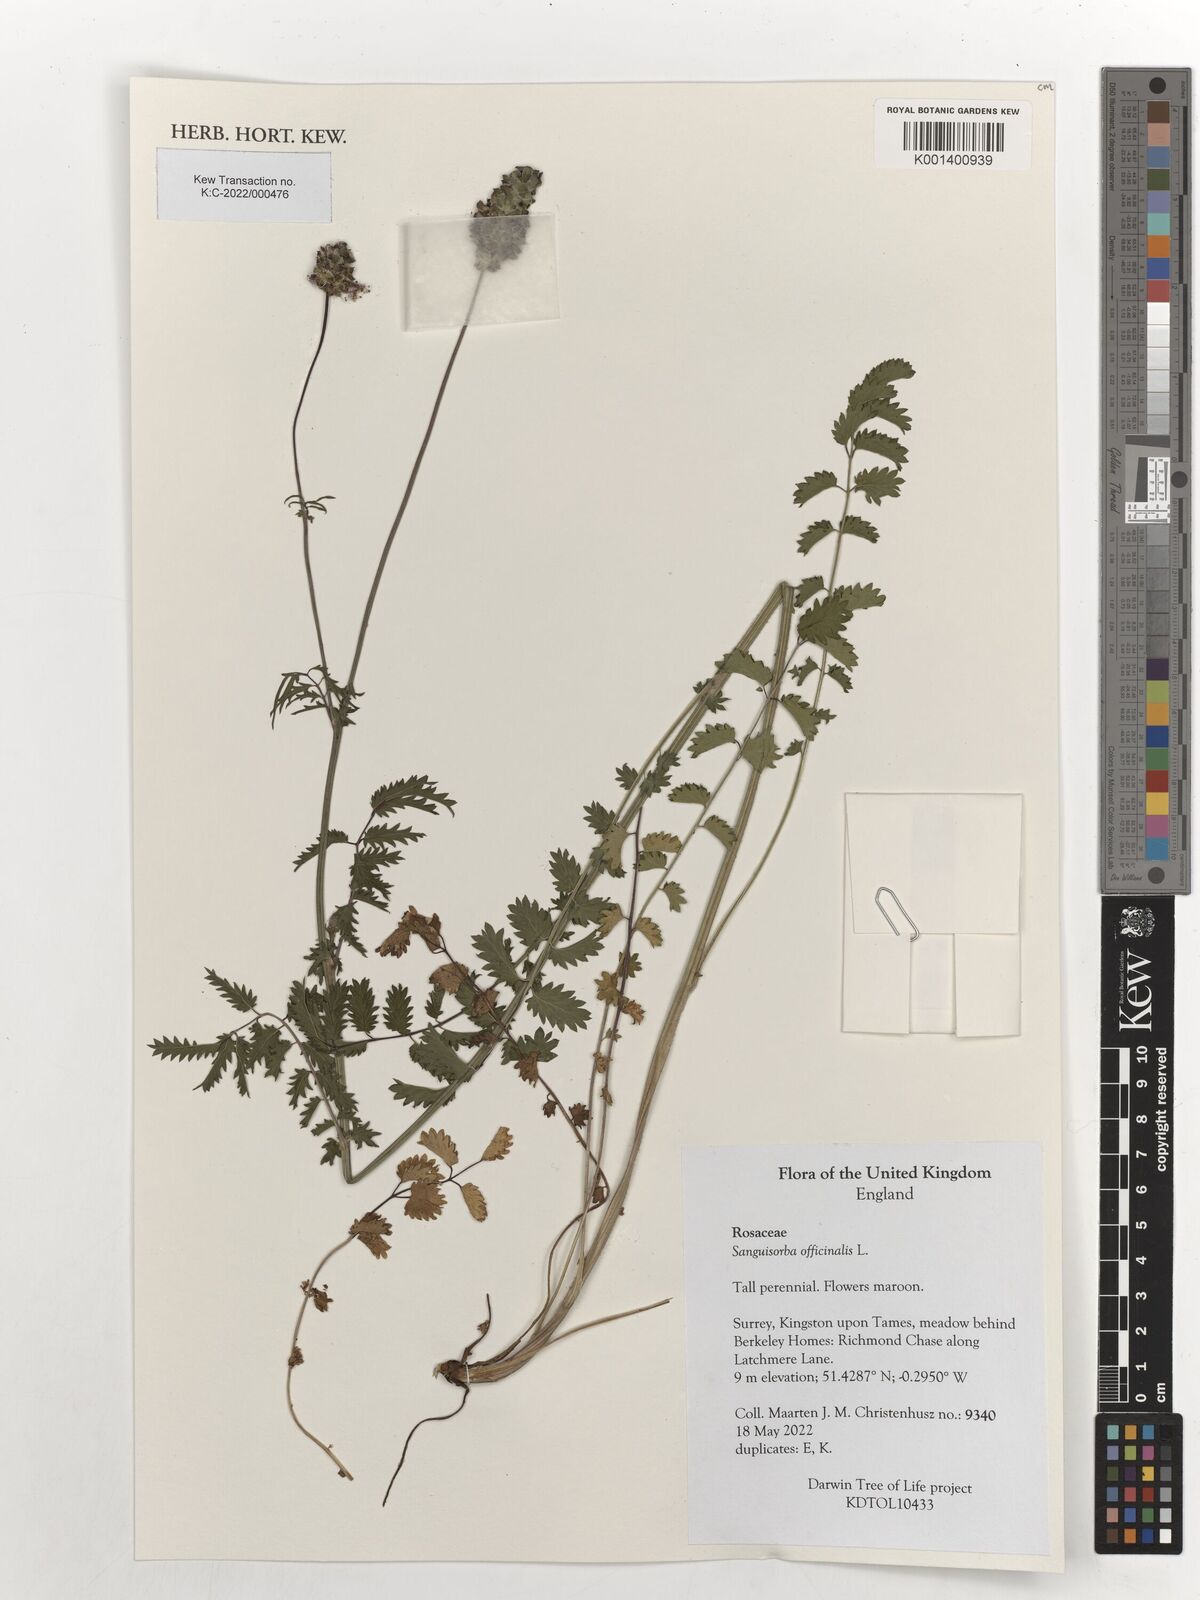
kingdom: Plantae
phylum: Tracheophyta
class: Magnoliopsida
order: Rosales
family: Rosaceae
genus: Sanguisorba
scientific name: Sanguisorba officinalis
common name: Great burnet
